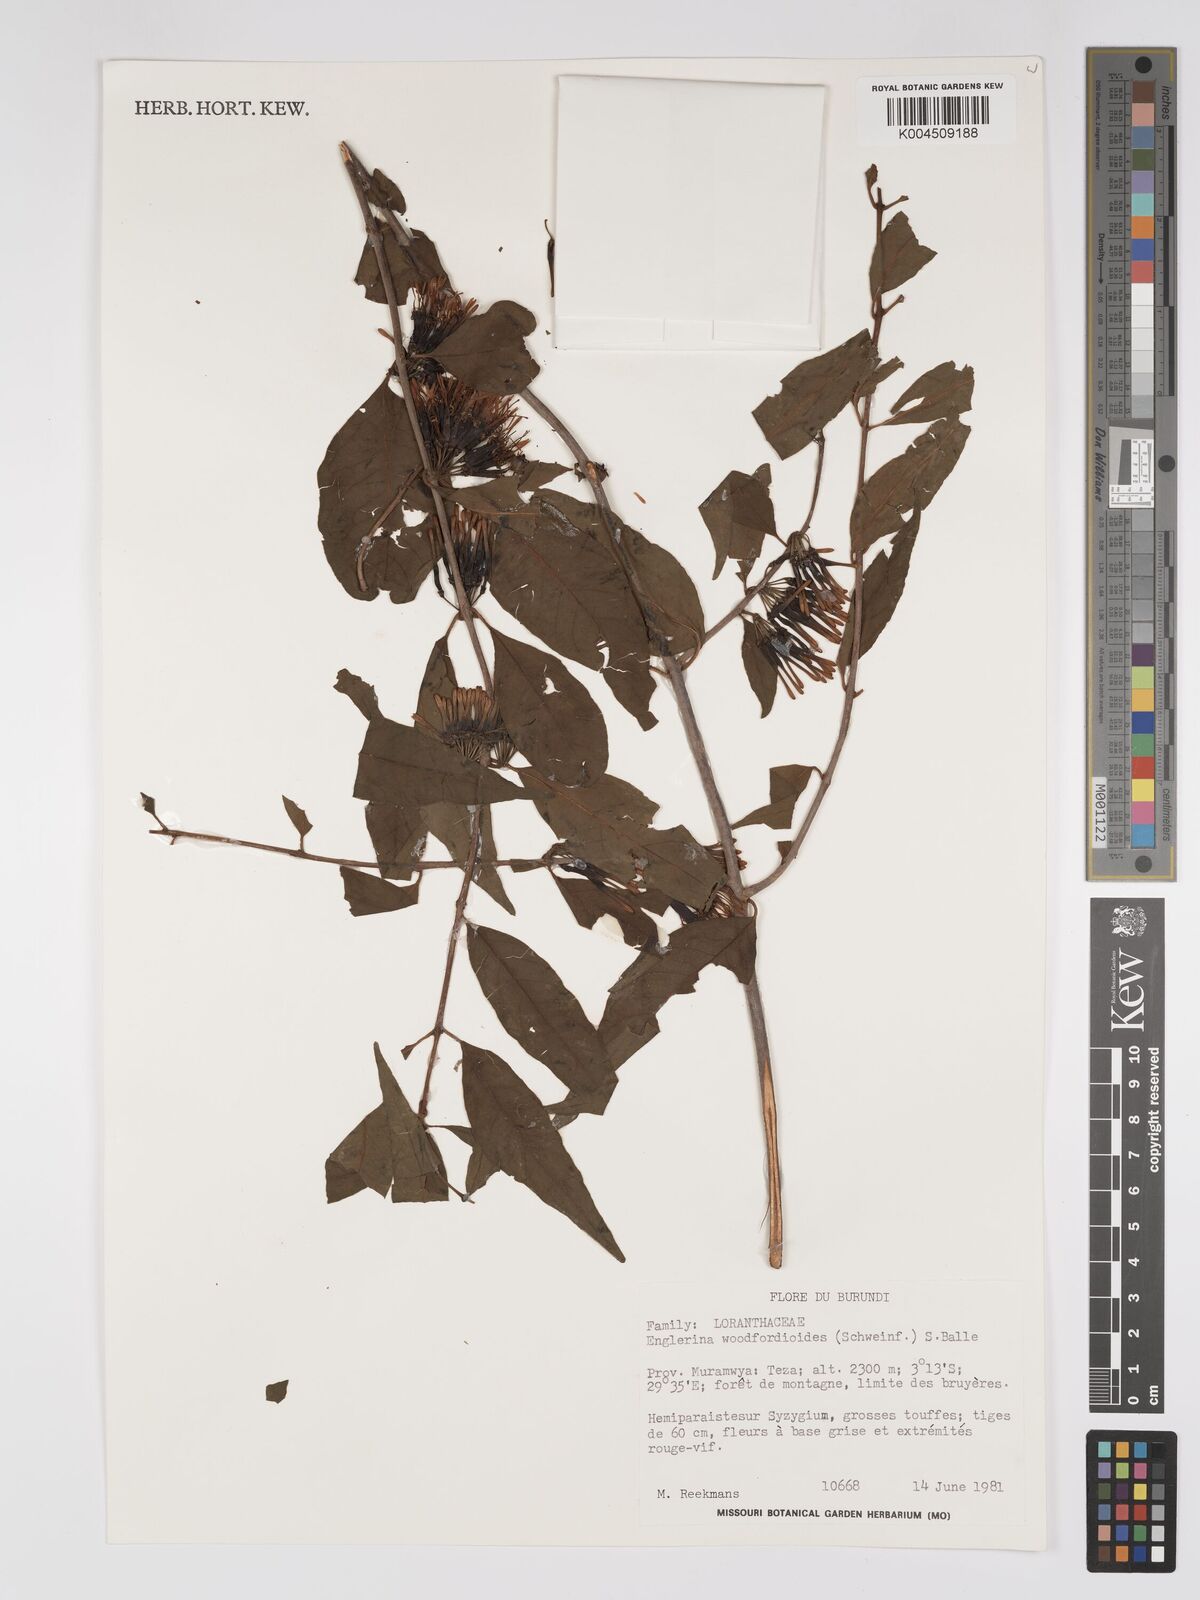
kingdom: Plantae
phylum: Tracheophyta
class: Magnoliopsida
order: Santalales
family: Loranthaceae
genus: Englerina
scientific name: Englerina woodfordioides
